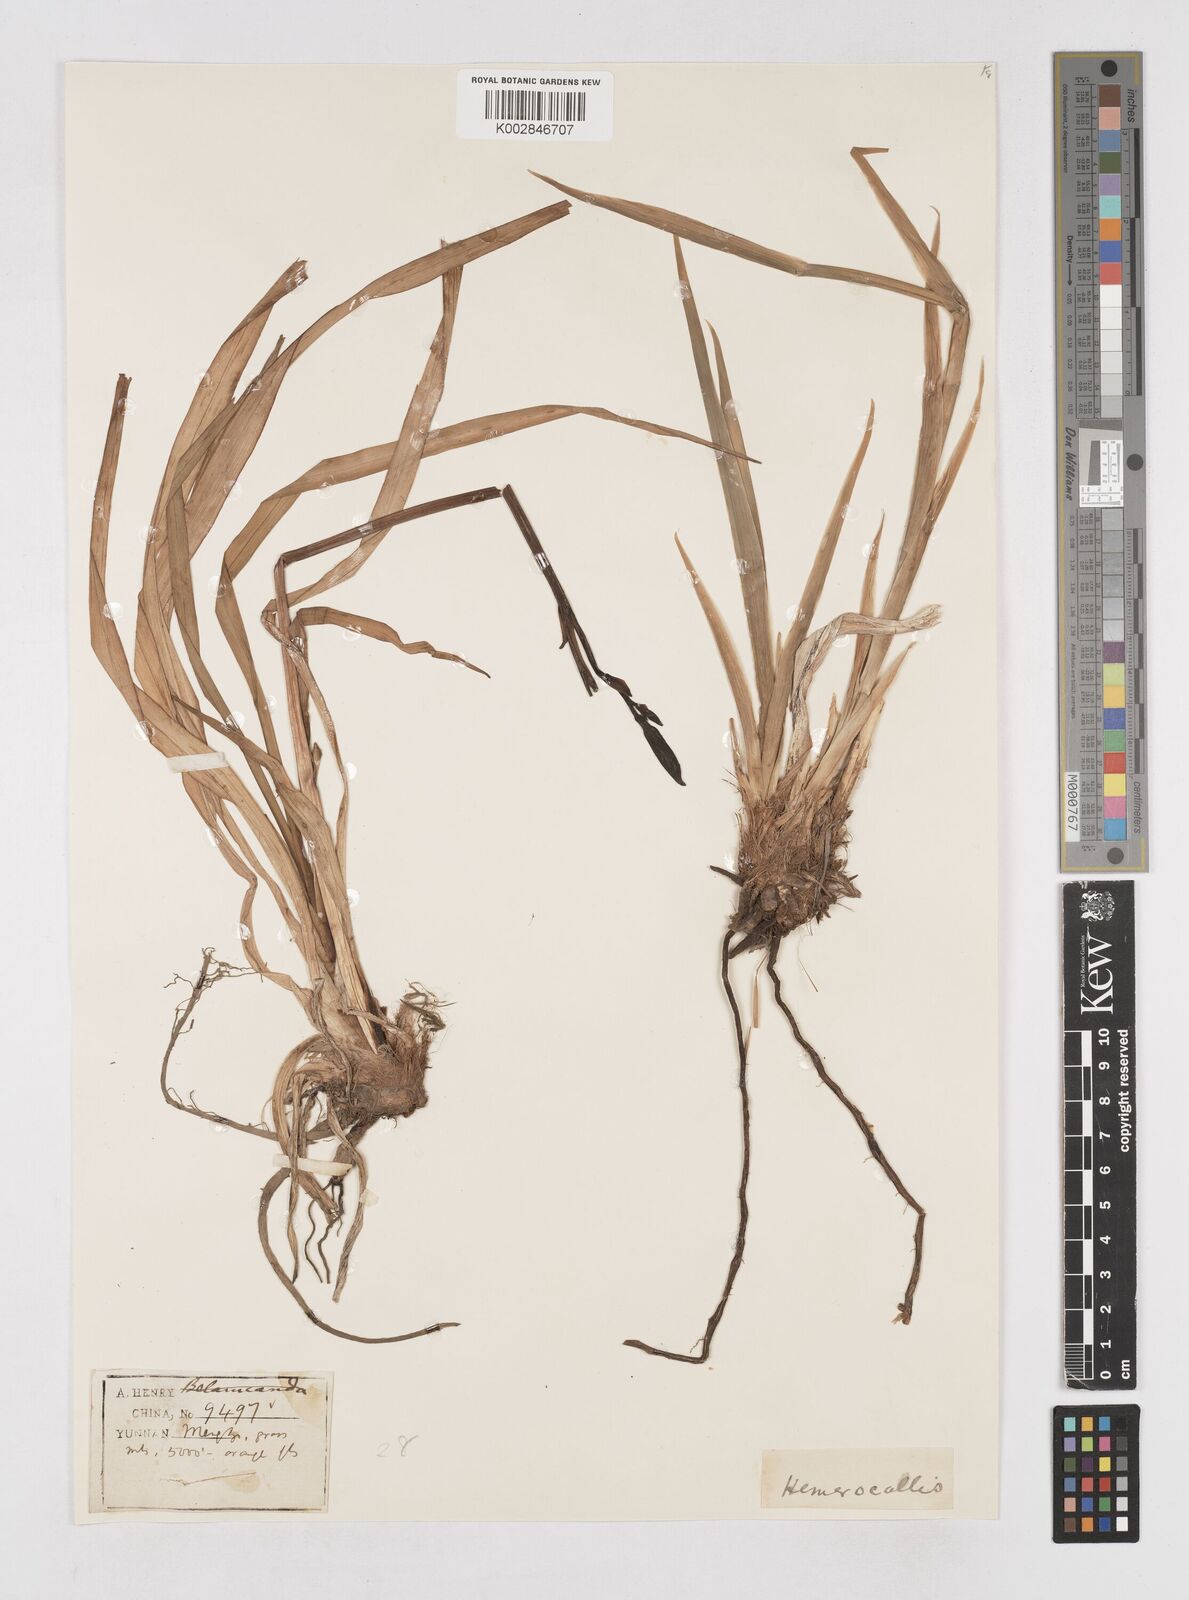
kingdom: Plantae
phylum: Tracheophyta
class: Liliopsida
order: Asparagales
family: Asphodelaceae
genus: Hemerocallis
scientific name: Hemerocallis
